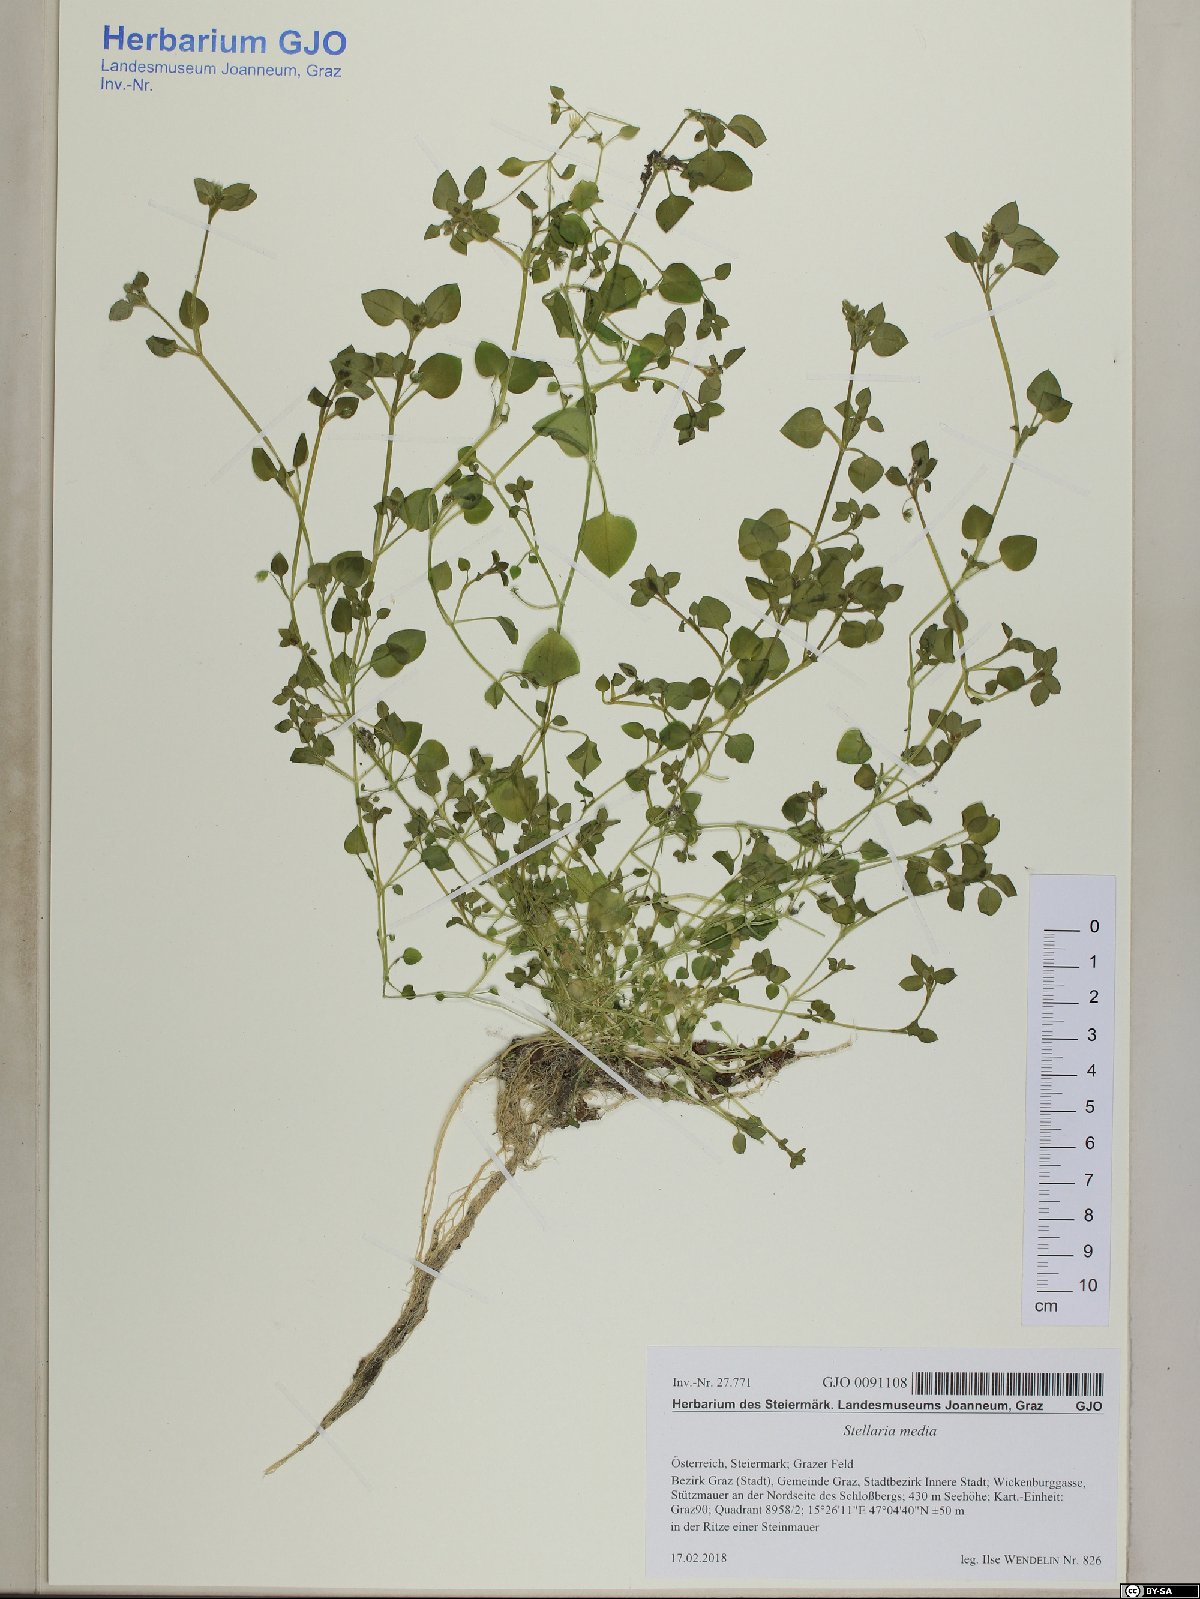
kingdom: Plantae
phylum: Tracheophyta
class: Magnoliopsida
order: Caryophyllales
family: Caryophyllaceae
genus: Stellaria
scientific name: Stellaria media
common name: Common chickweed
